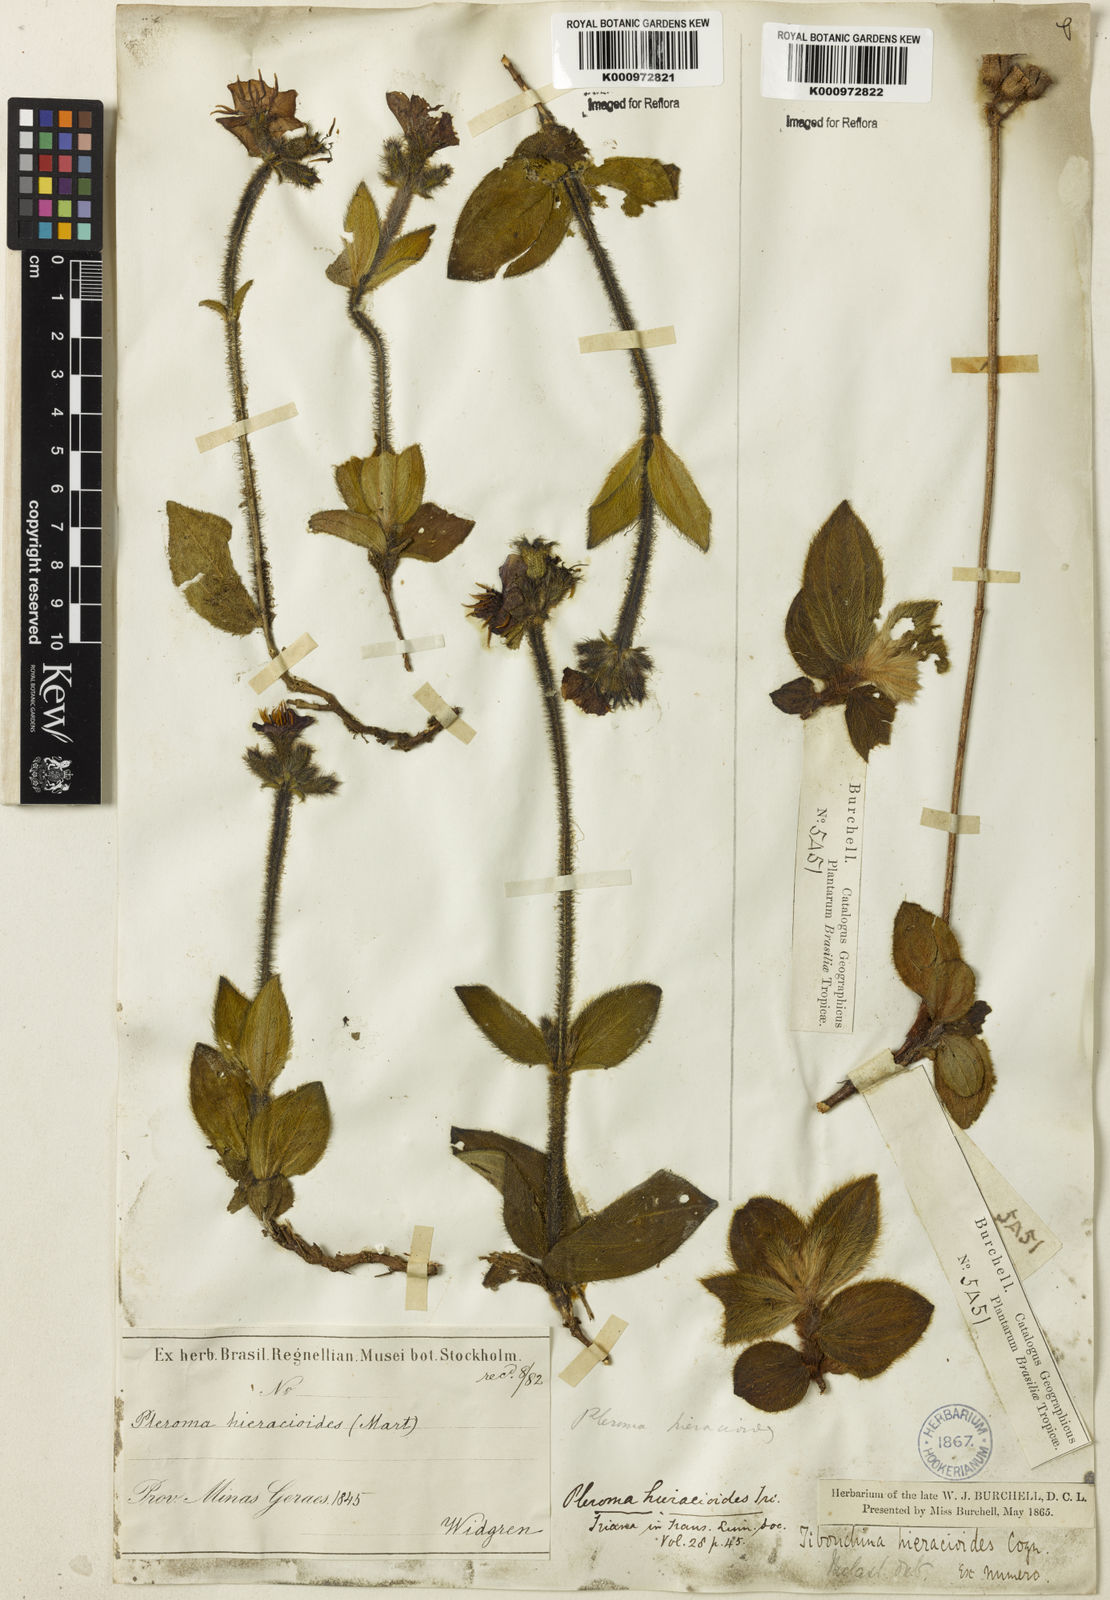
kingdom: Plantae
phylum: Tracheophyta
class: Magnoliopsida
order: Myrtales
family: Melastomataceae
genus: Chaetogastra
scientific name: Chaetogastra hieracioides
